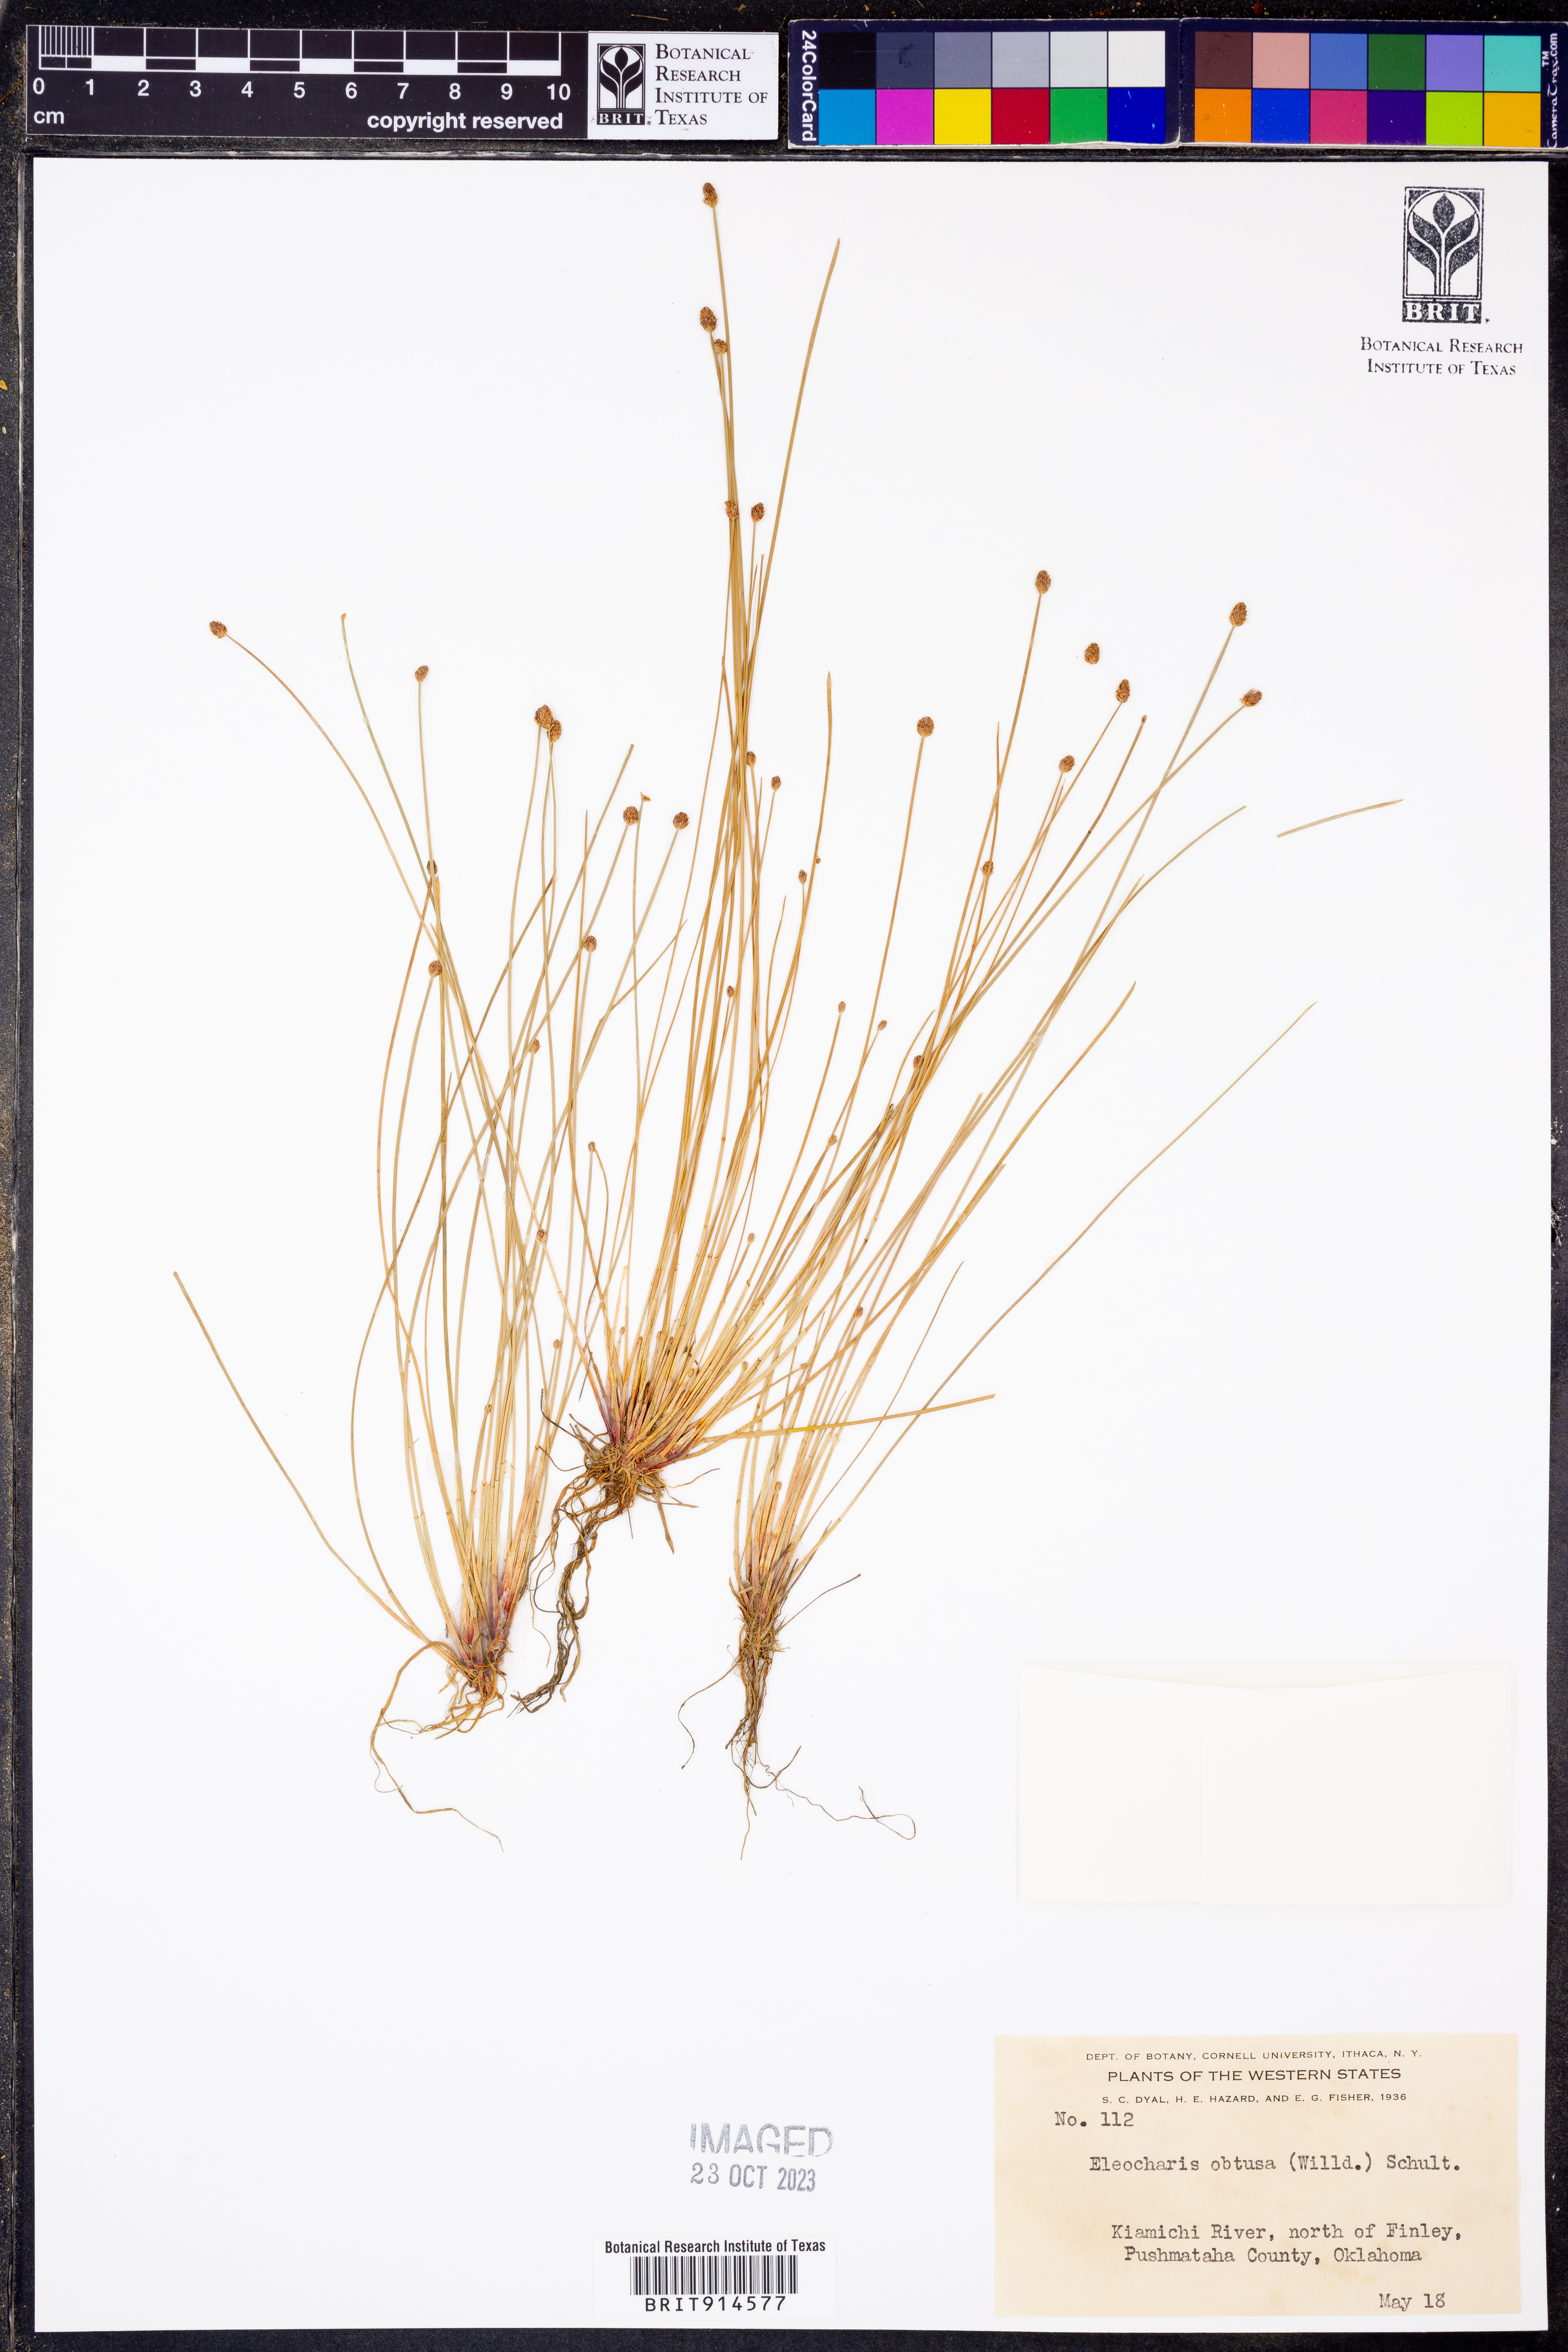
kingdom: Plantae
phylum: Tracheophyta
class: Liliopsida
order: Poales
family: Cyperaceae
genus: Eleocharis
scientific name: Eleocharis obtusa
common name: Blunt spikerush
